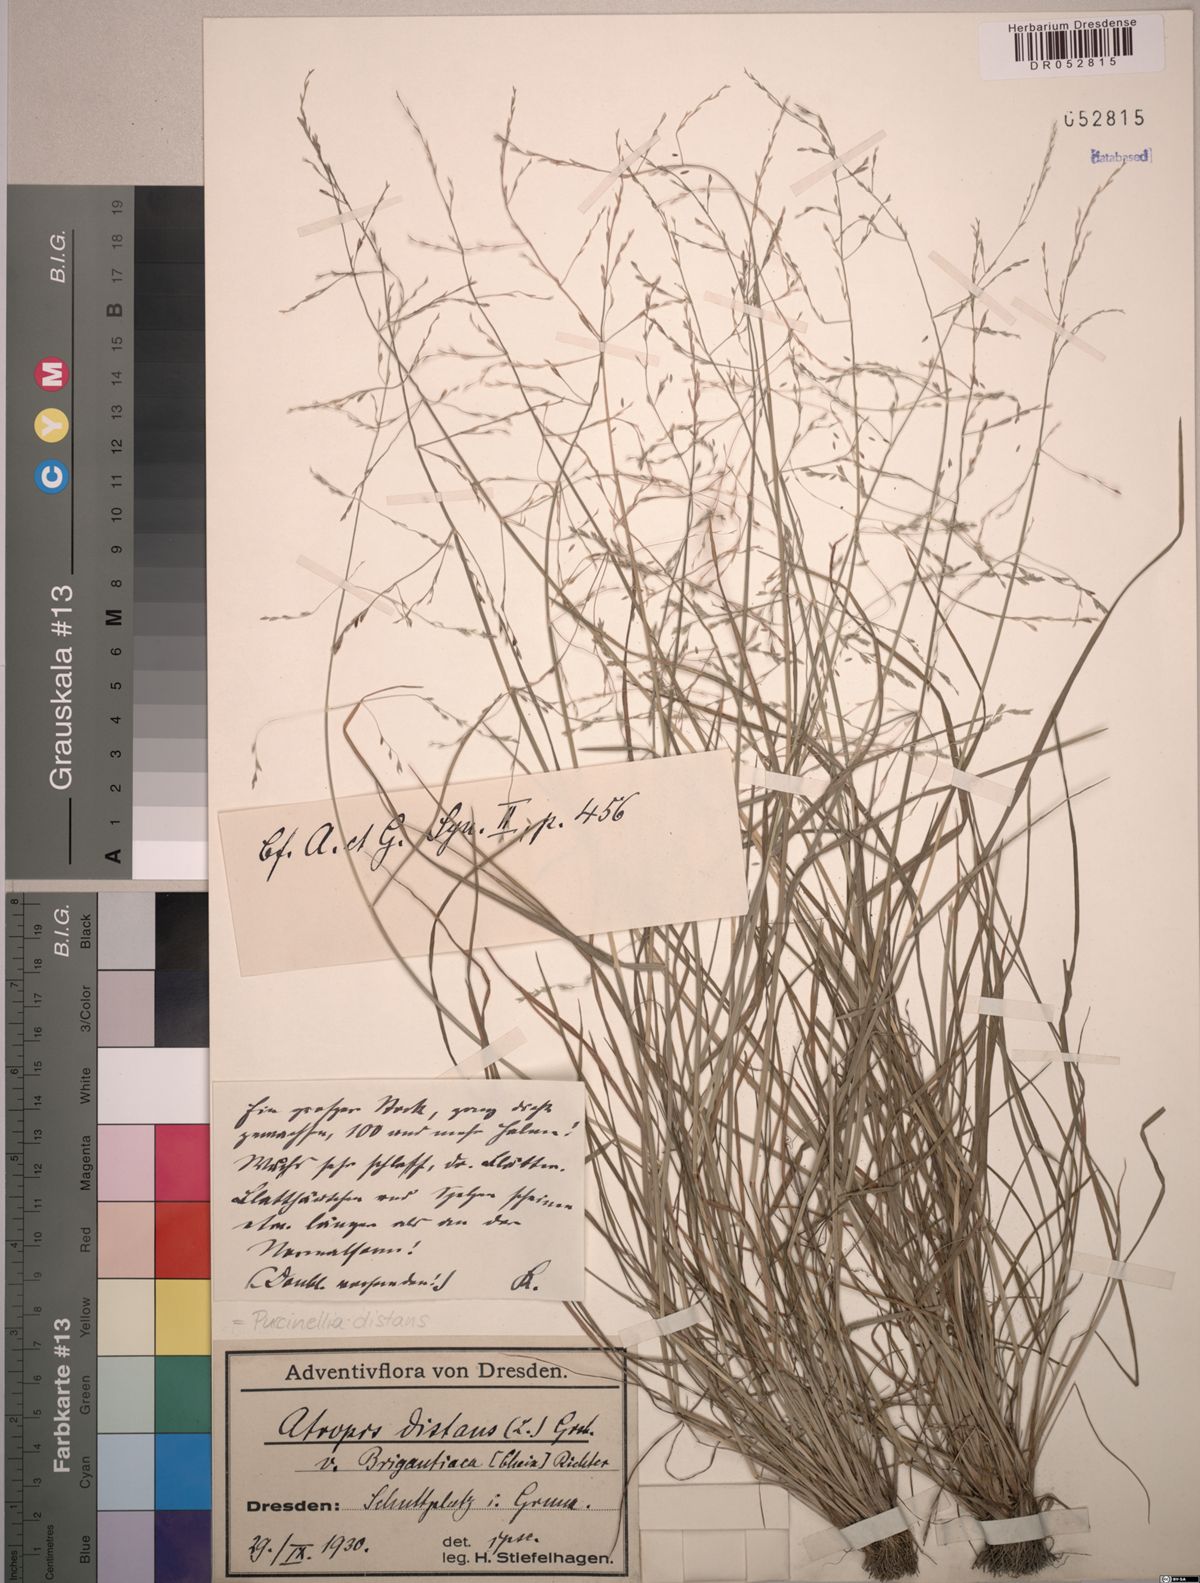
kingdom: Plantae
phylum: Tracheophyta
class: Liliopsida
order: Poales
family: Poaceae
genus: Puccinellia
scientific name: Puccinellia distans
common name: Weeping alkaligrass
